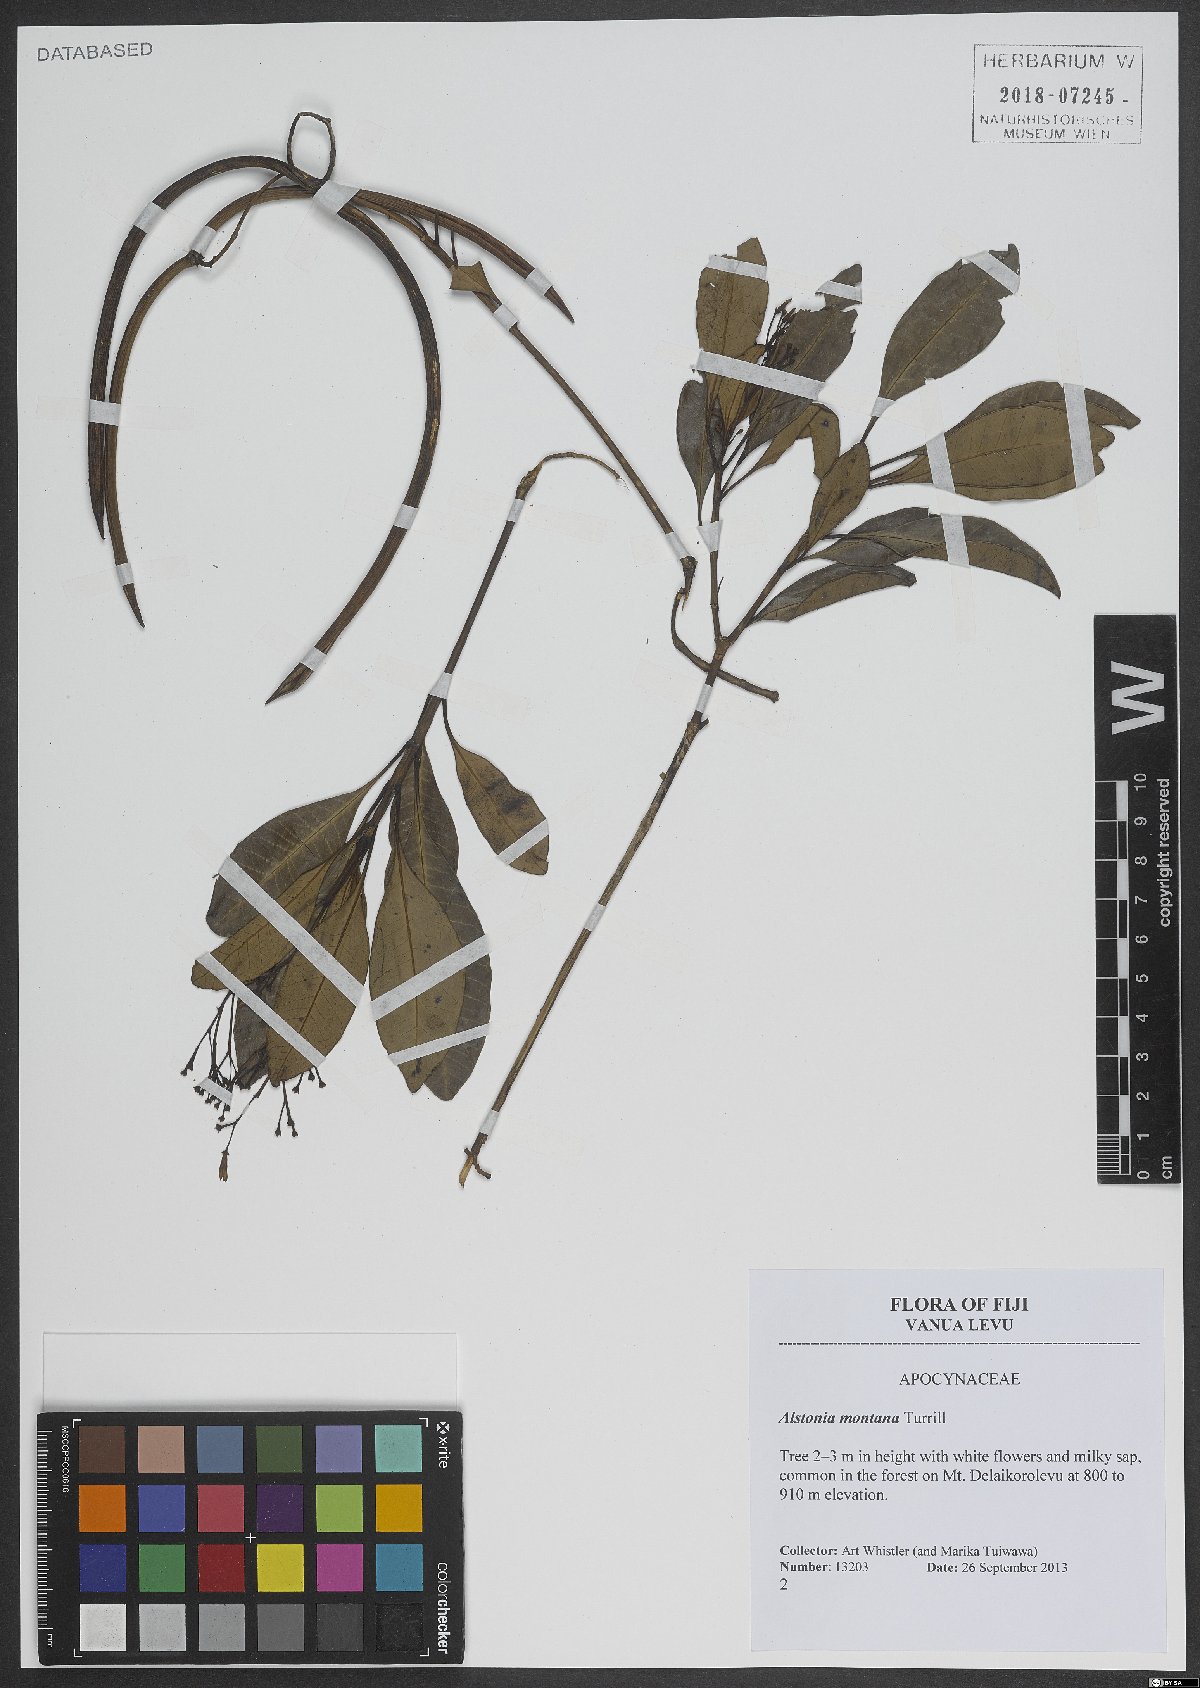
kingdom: Plantae
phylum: Tracheophyta
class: Magnoliopsida
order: Gentianales
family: Apocynaceae
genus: Alstonia
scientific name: Alstonia costata
